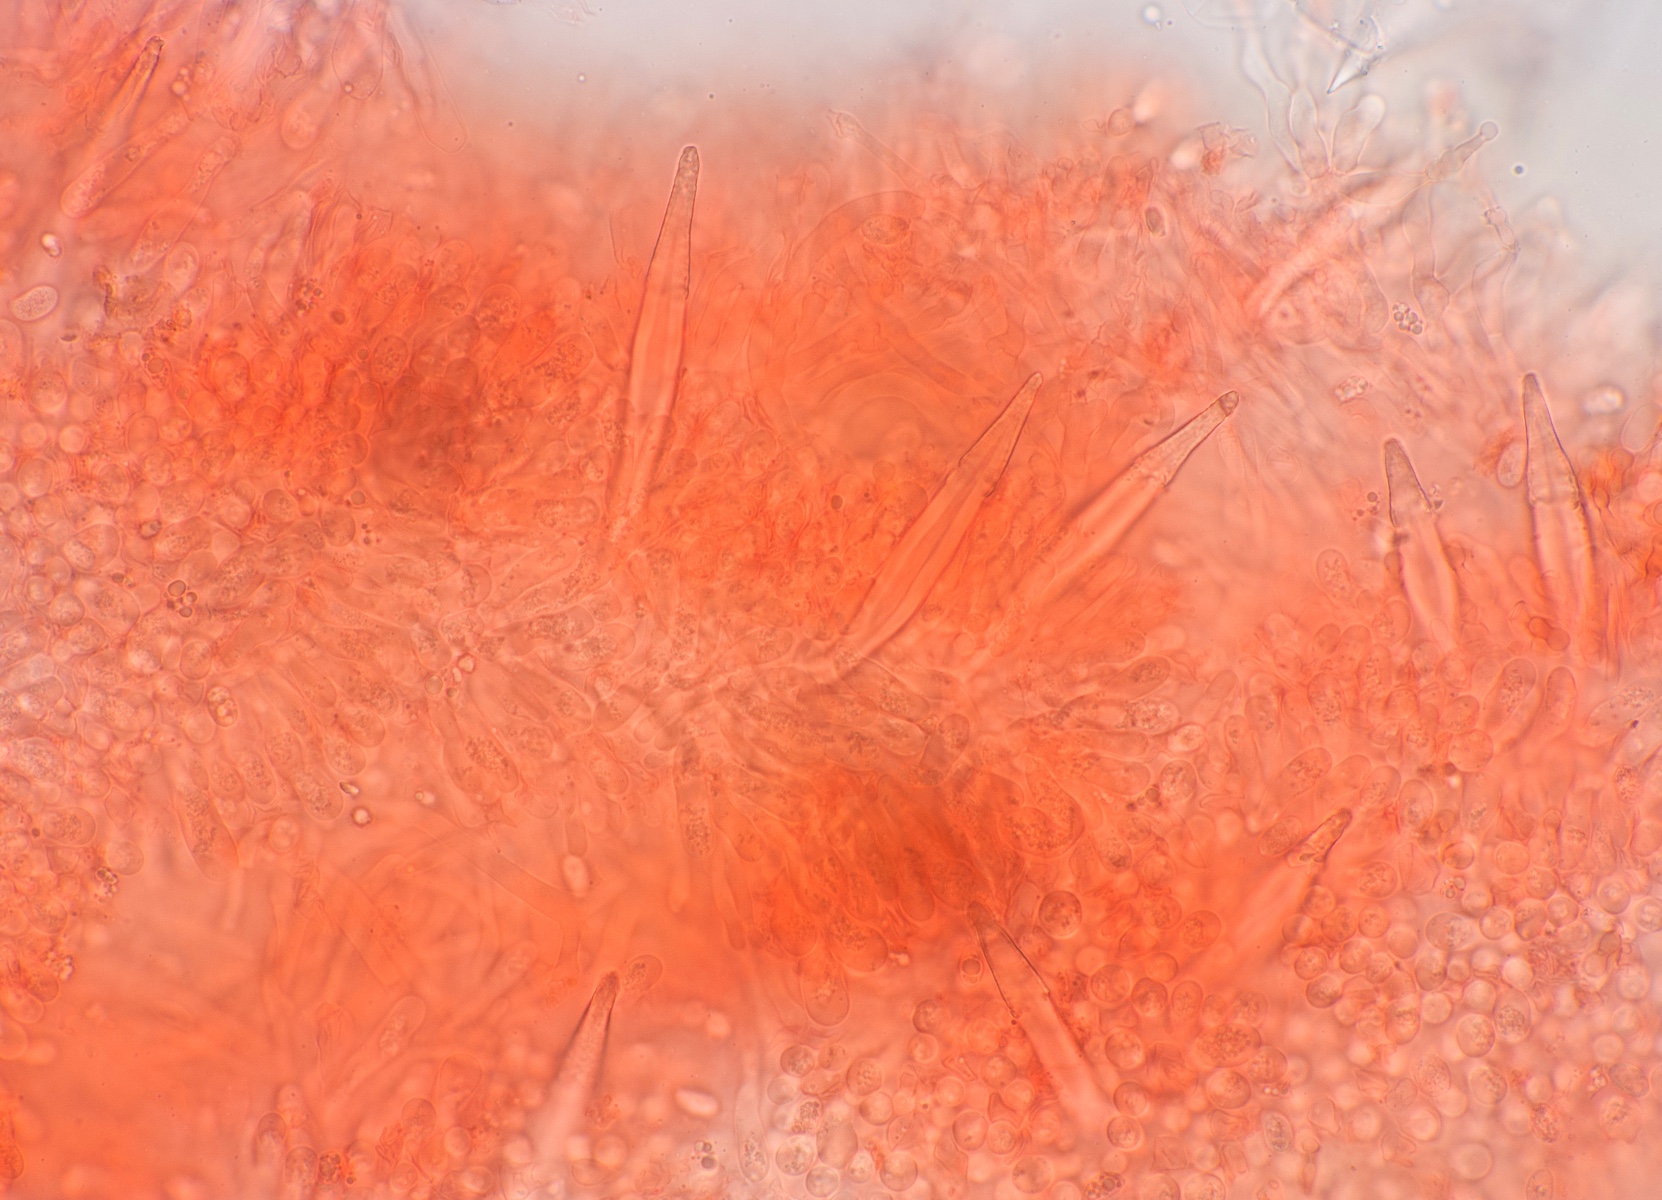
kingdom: Fungi
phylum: Basidiomycota
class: Agaricomycetes
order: Agaricales
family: Pleurotaceae
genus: Hohenbuehelia
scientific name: Hohenbuehelia tremula
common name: førne-filthat
